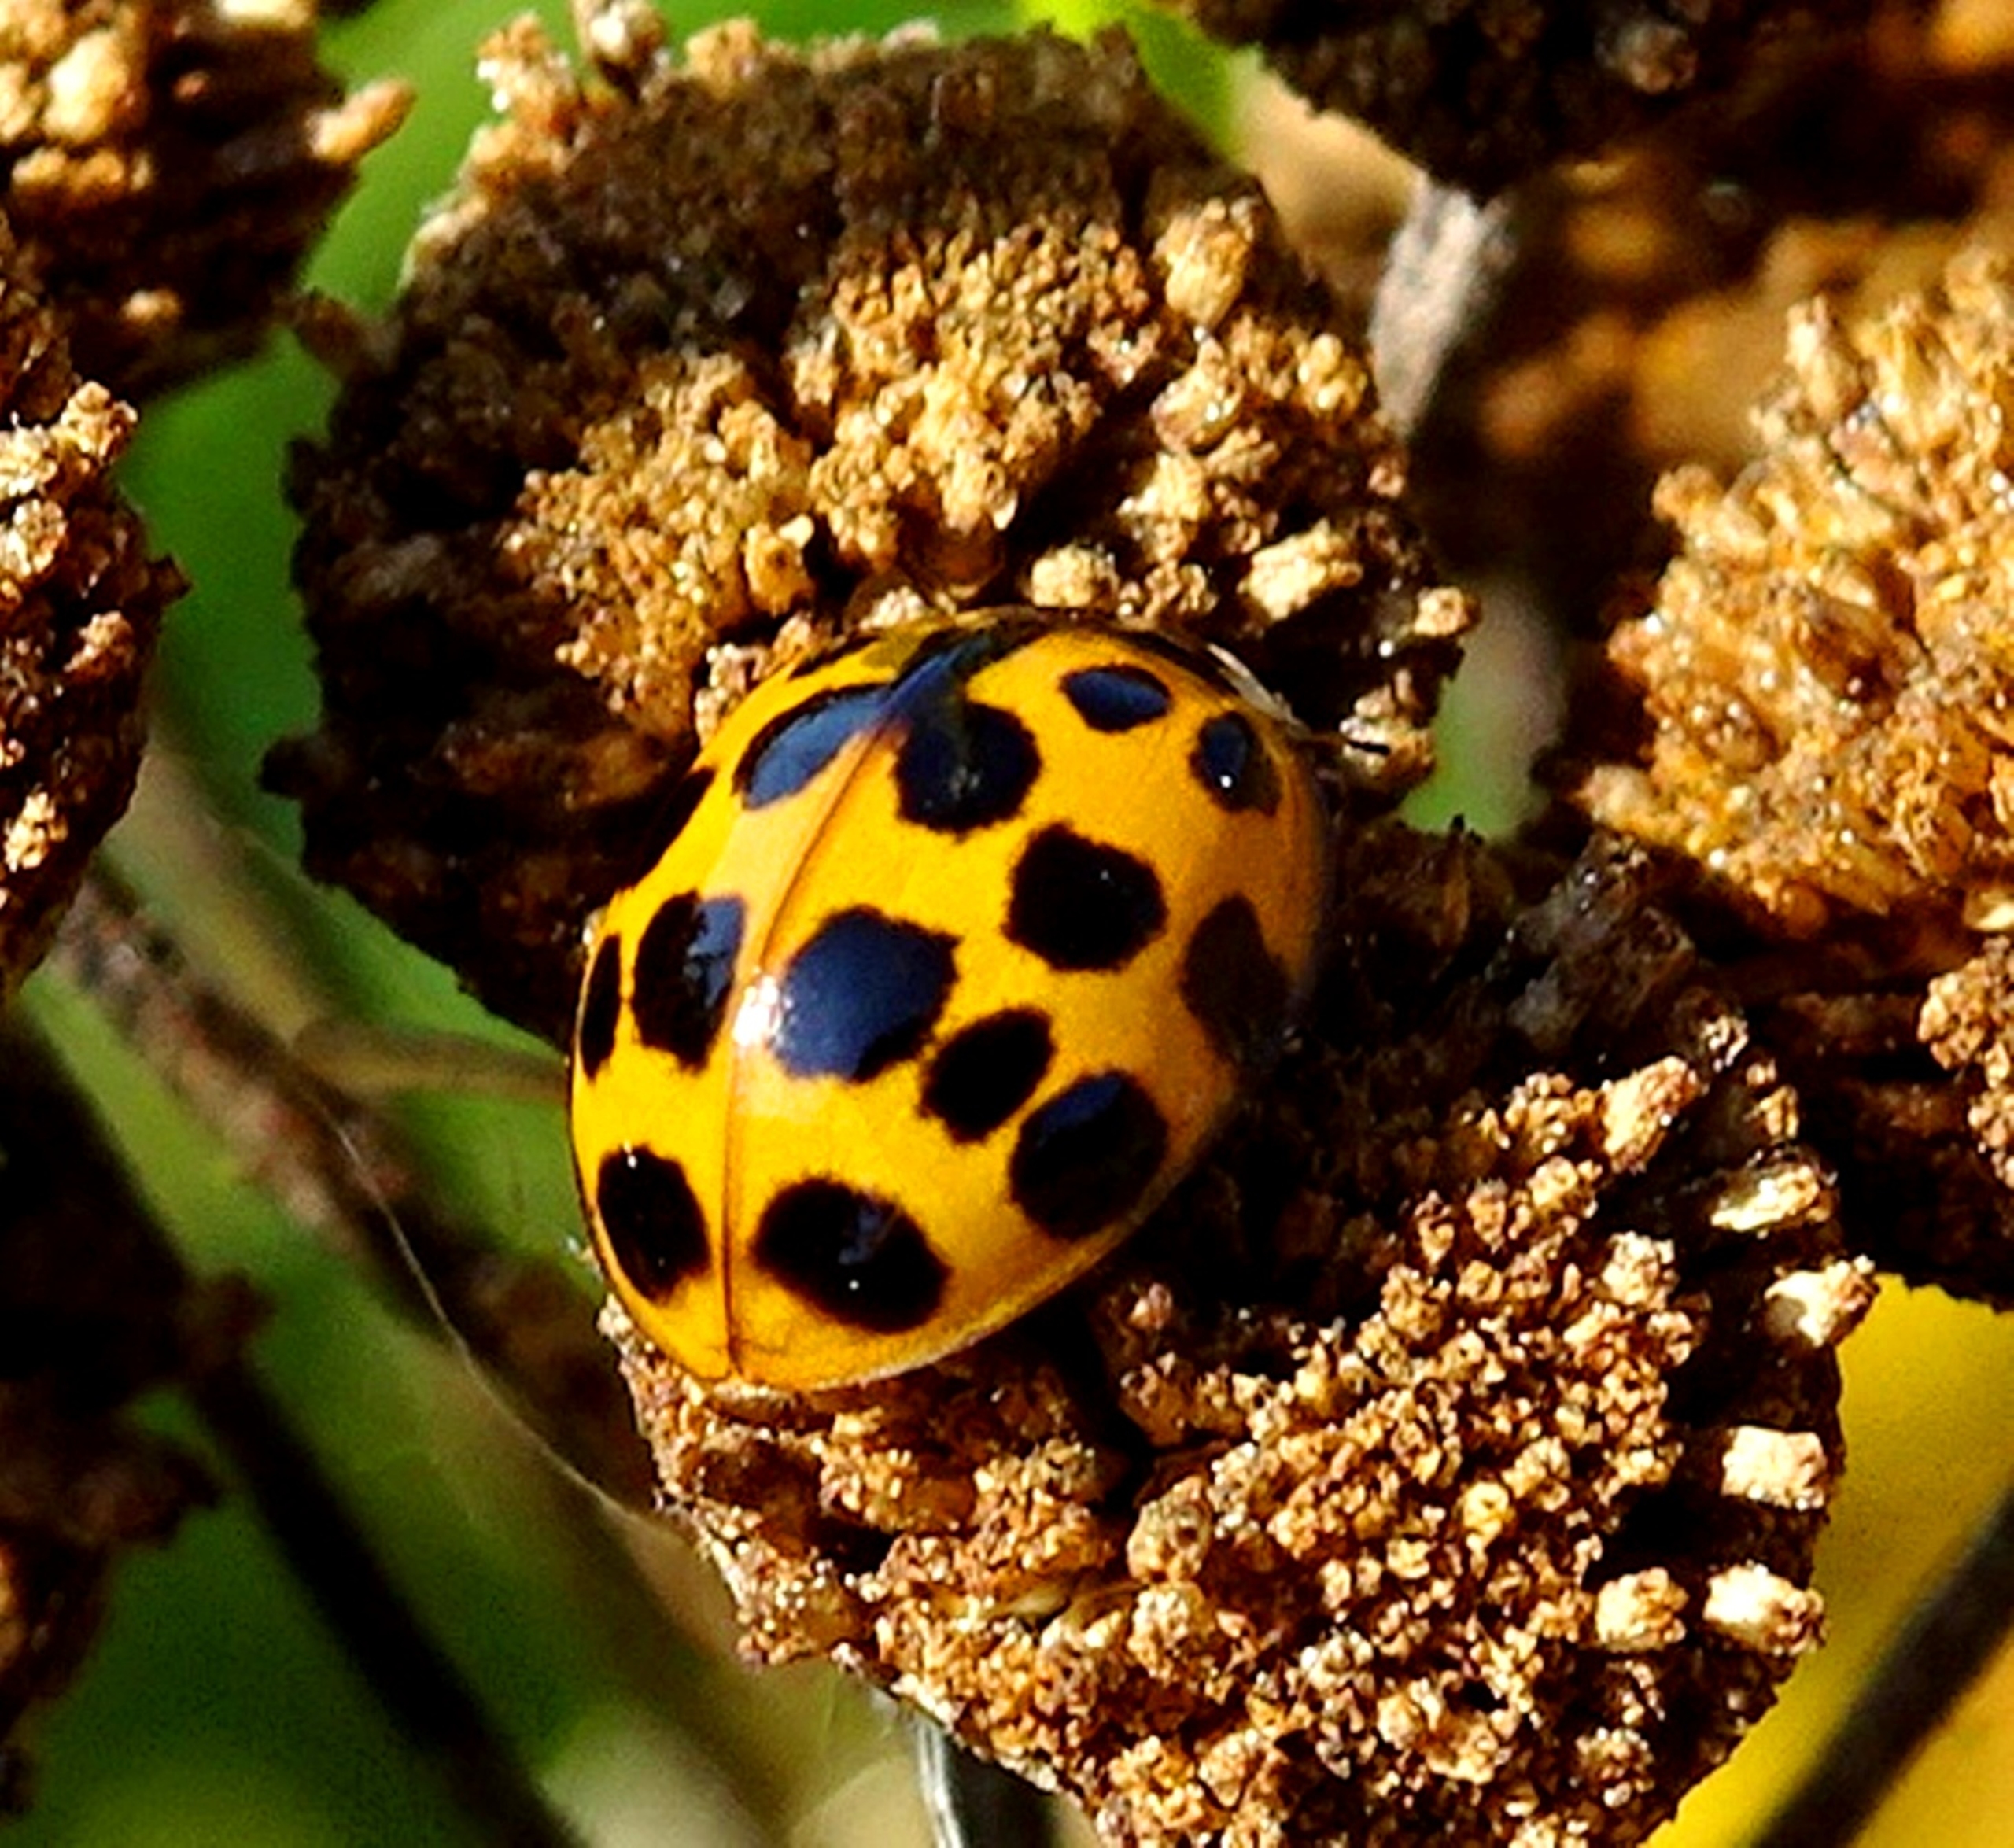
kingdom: Animalia
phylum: Arthropoda
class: Insecta
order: Coleoptera
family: Coccinellidae
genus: Harmonia
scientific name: Harmonia axyridis
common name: Harlekinmariehøne
